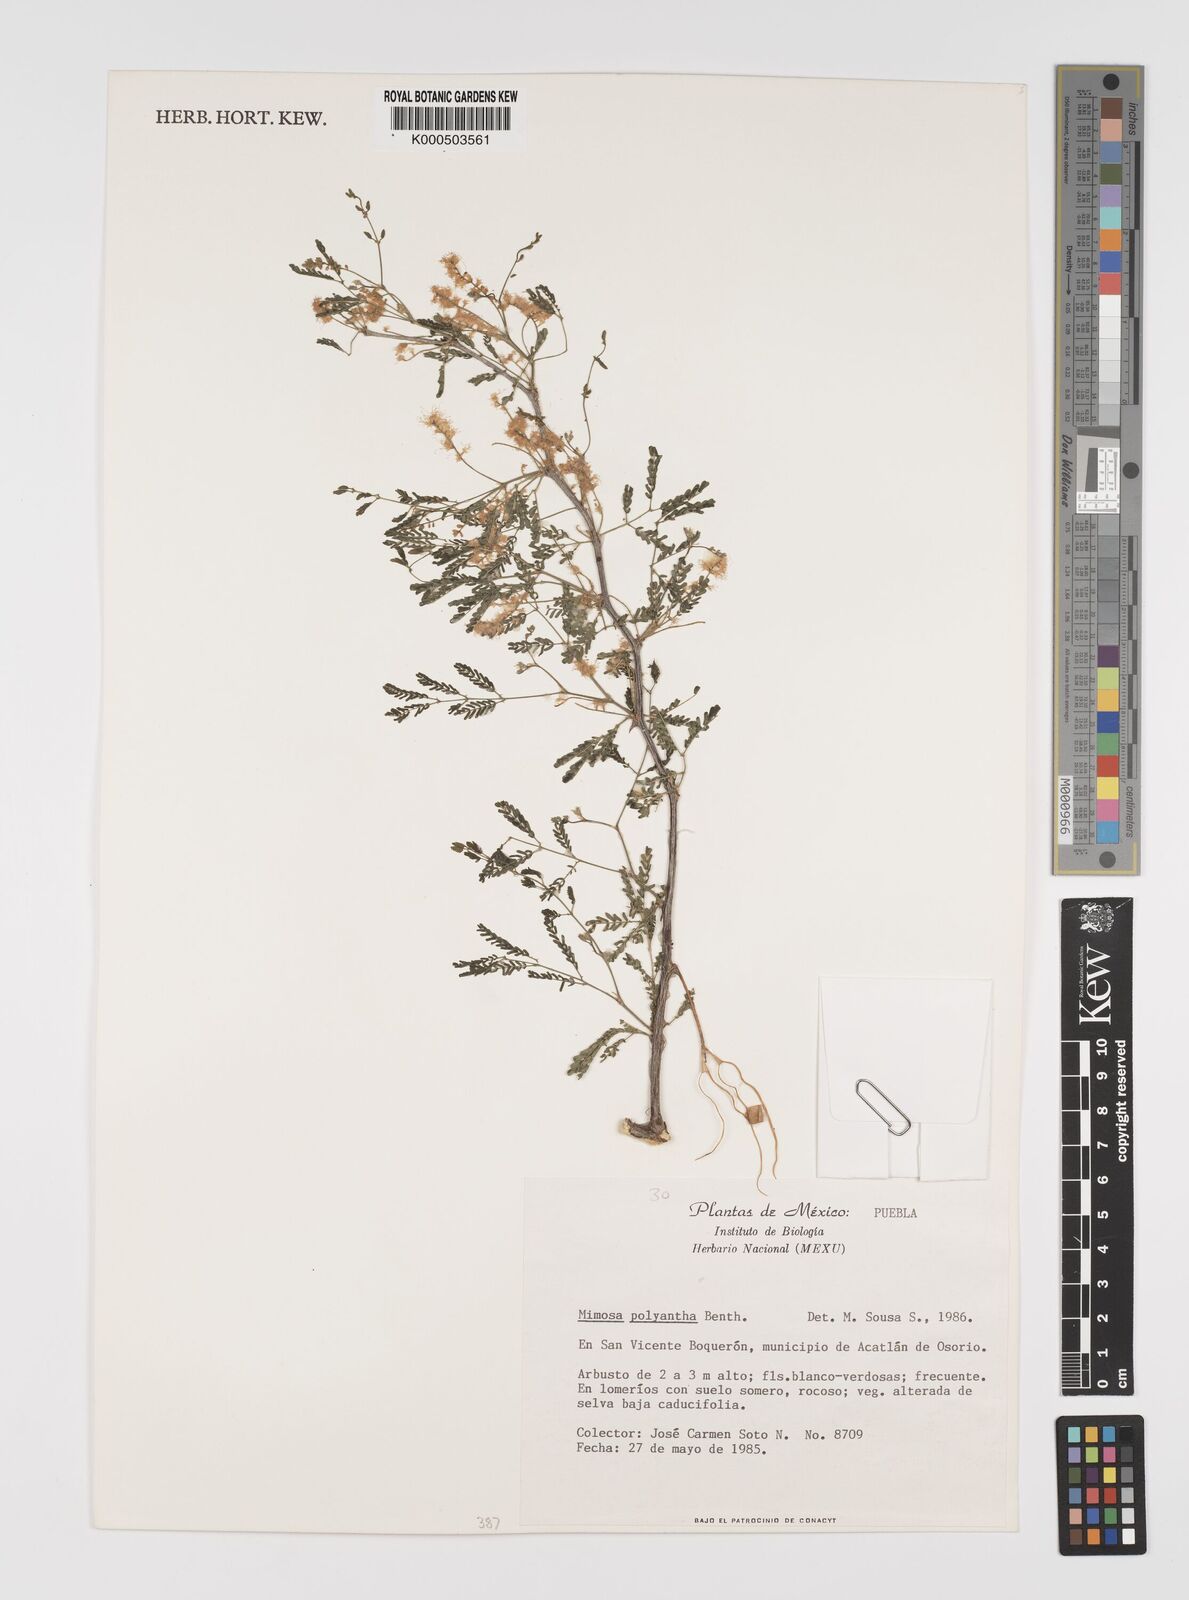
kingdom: Plantae
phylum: Tracheophyta
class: Magnoliopsida
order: Fabales
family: Fabaceae
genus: Mimosa
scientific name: Mimosa polyantha
